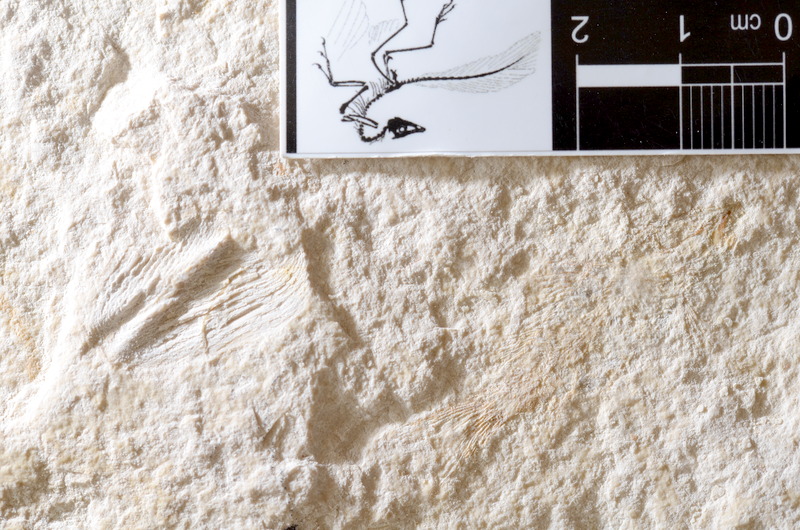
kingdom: Animalia
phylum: Chordata
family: Macrosemiidae
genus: Notagogus
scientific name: Notagogus
